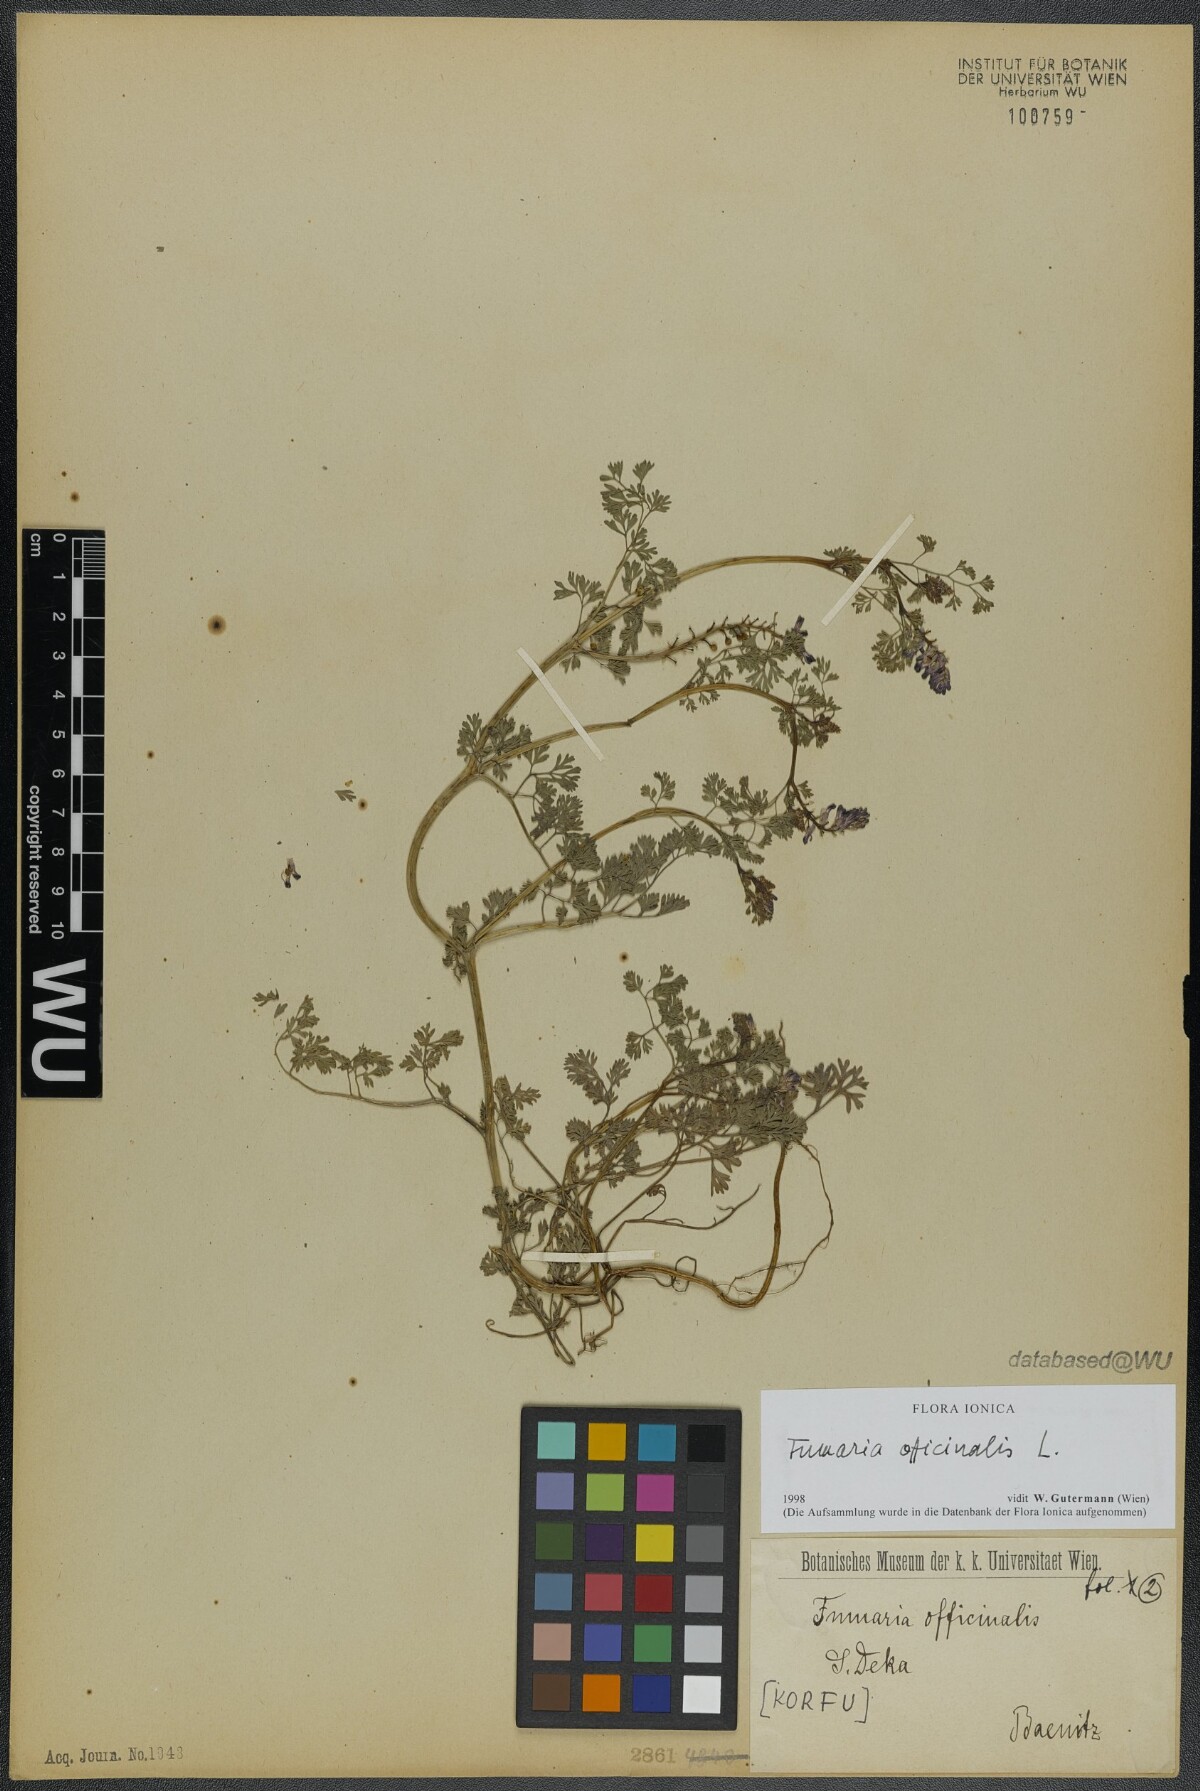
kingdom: Plantae
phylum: Tracheophyta
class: Magnoliopsida
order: Ranunculales
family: Papaveraceae
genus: Fumaria
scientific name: Fumaria officinalis
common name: Common fumitory
